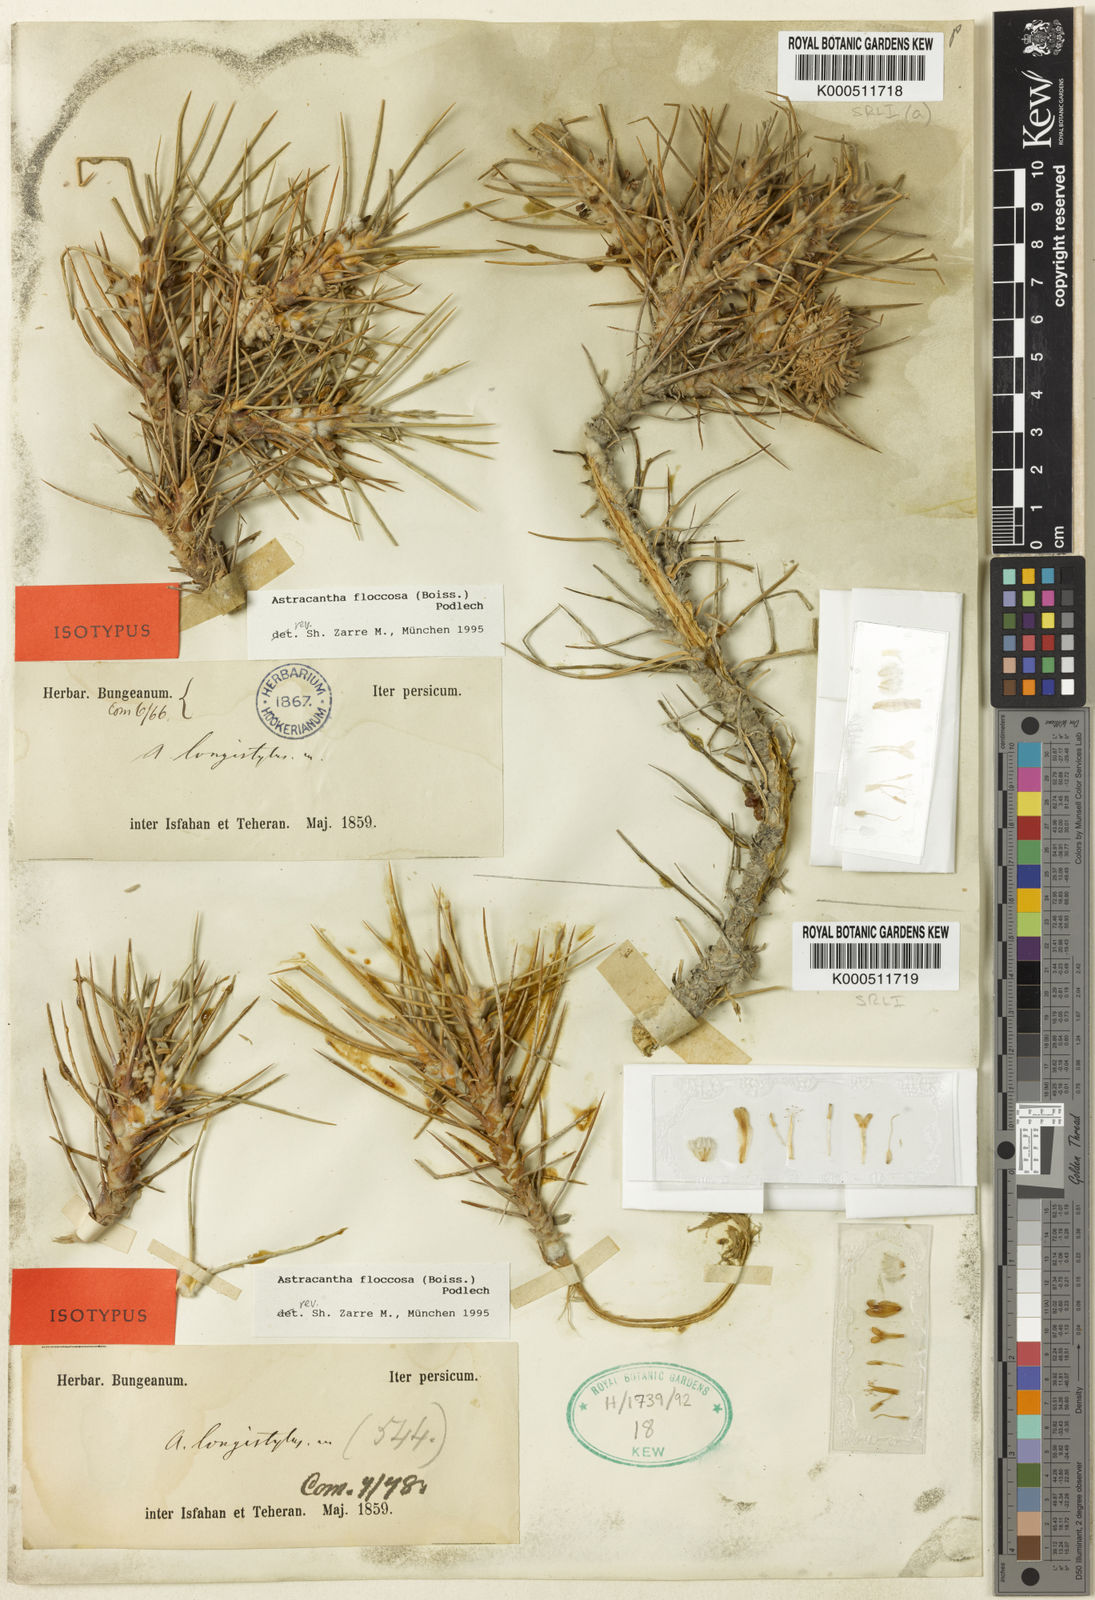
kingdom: Plantae
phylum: Tracheophyta
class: Magnoliopsida
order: Fabales
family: Fabaceae
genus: Astragalus
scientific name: Astragalus
